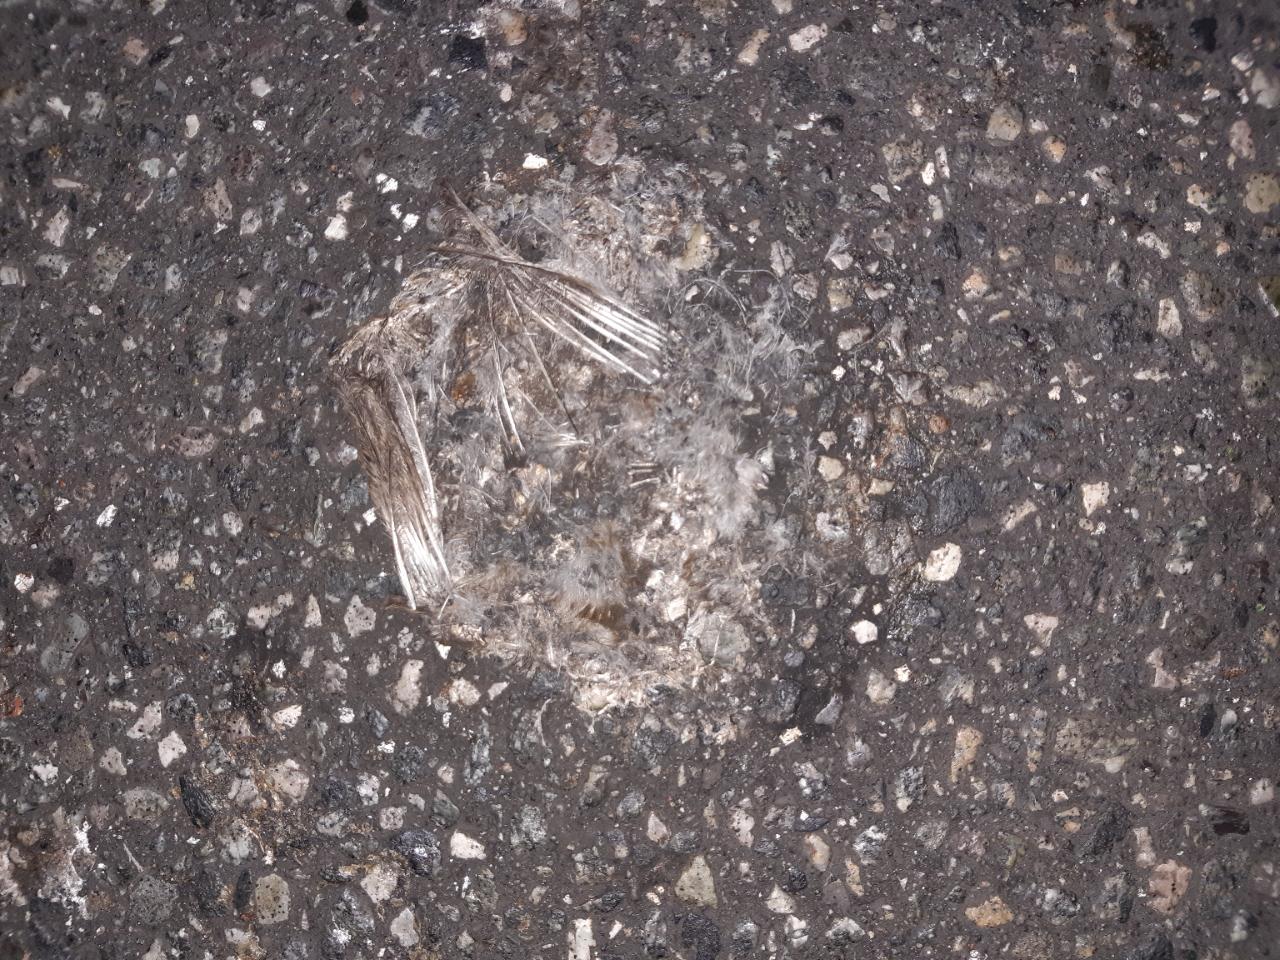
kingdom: Animalia
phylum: Chordata
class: Aves
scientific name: Aves
